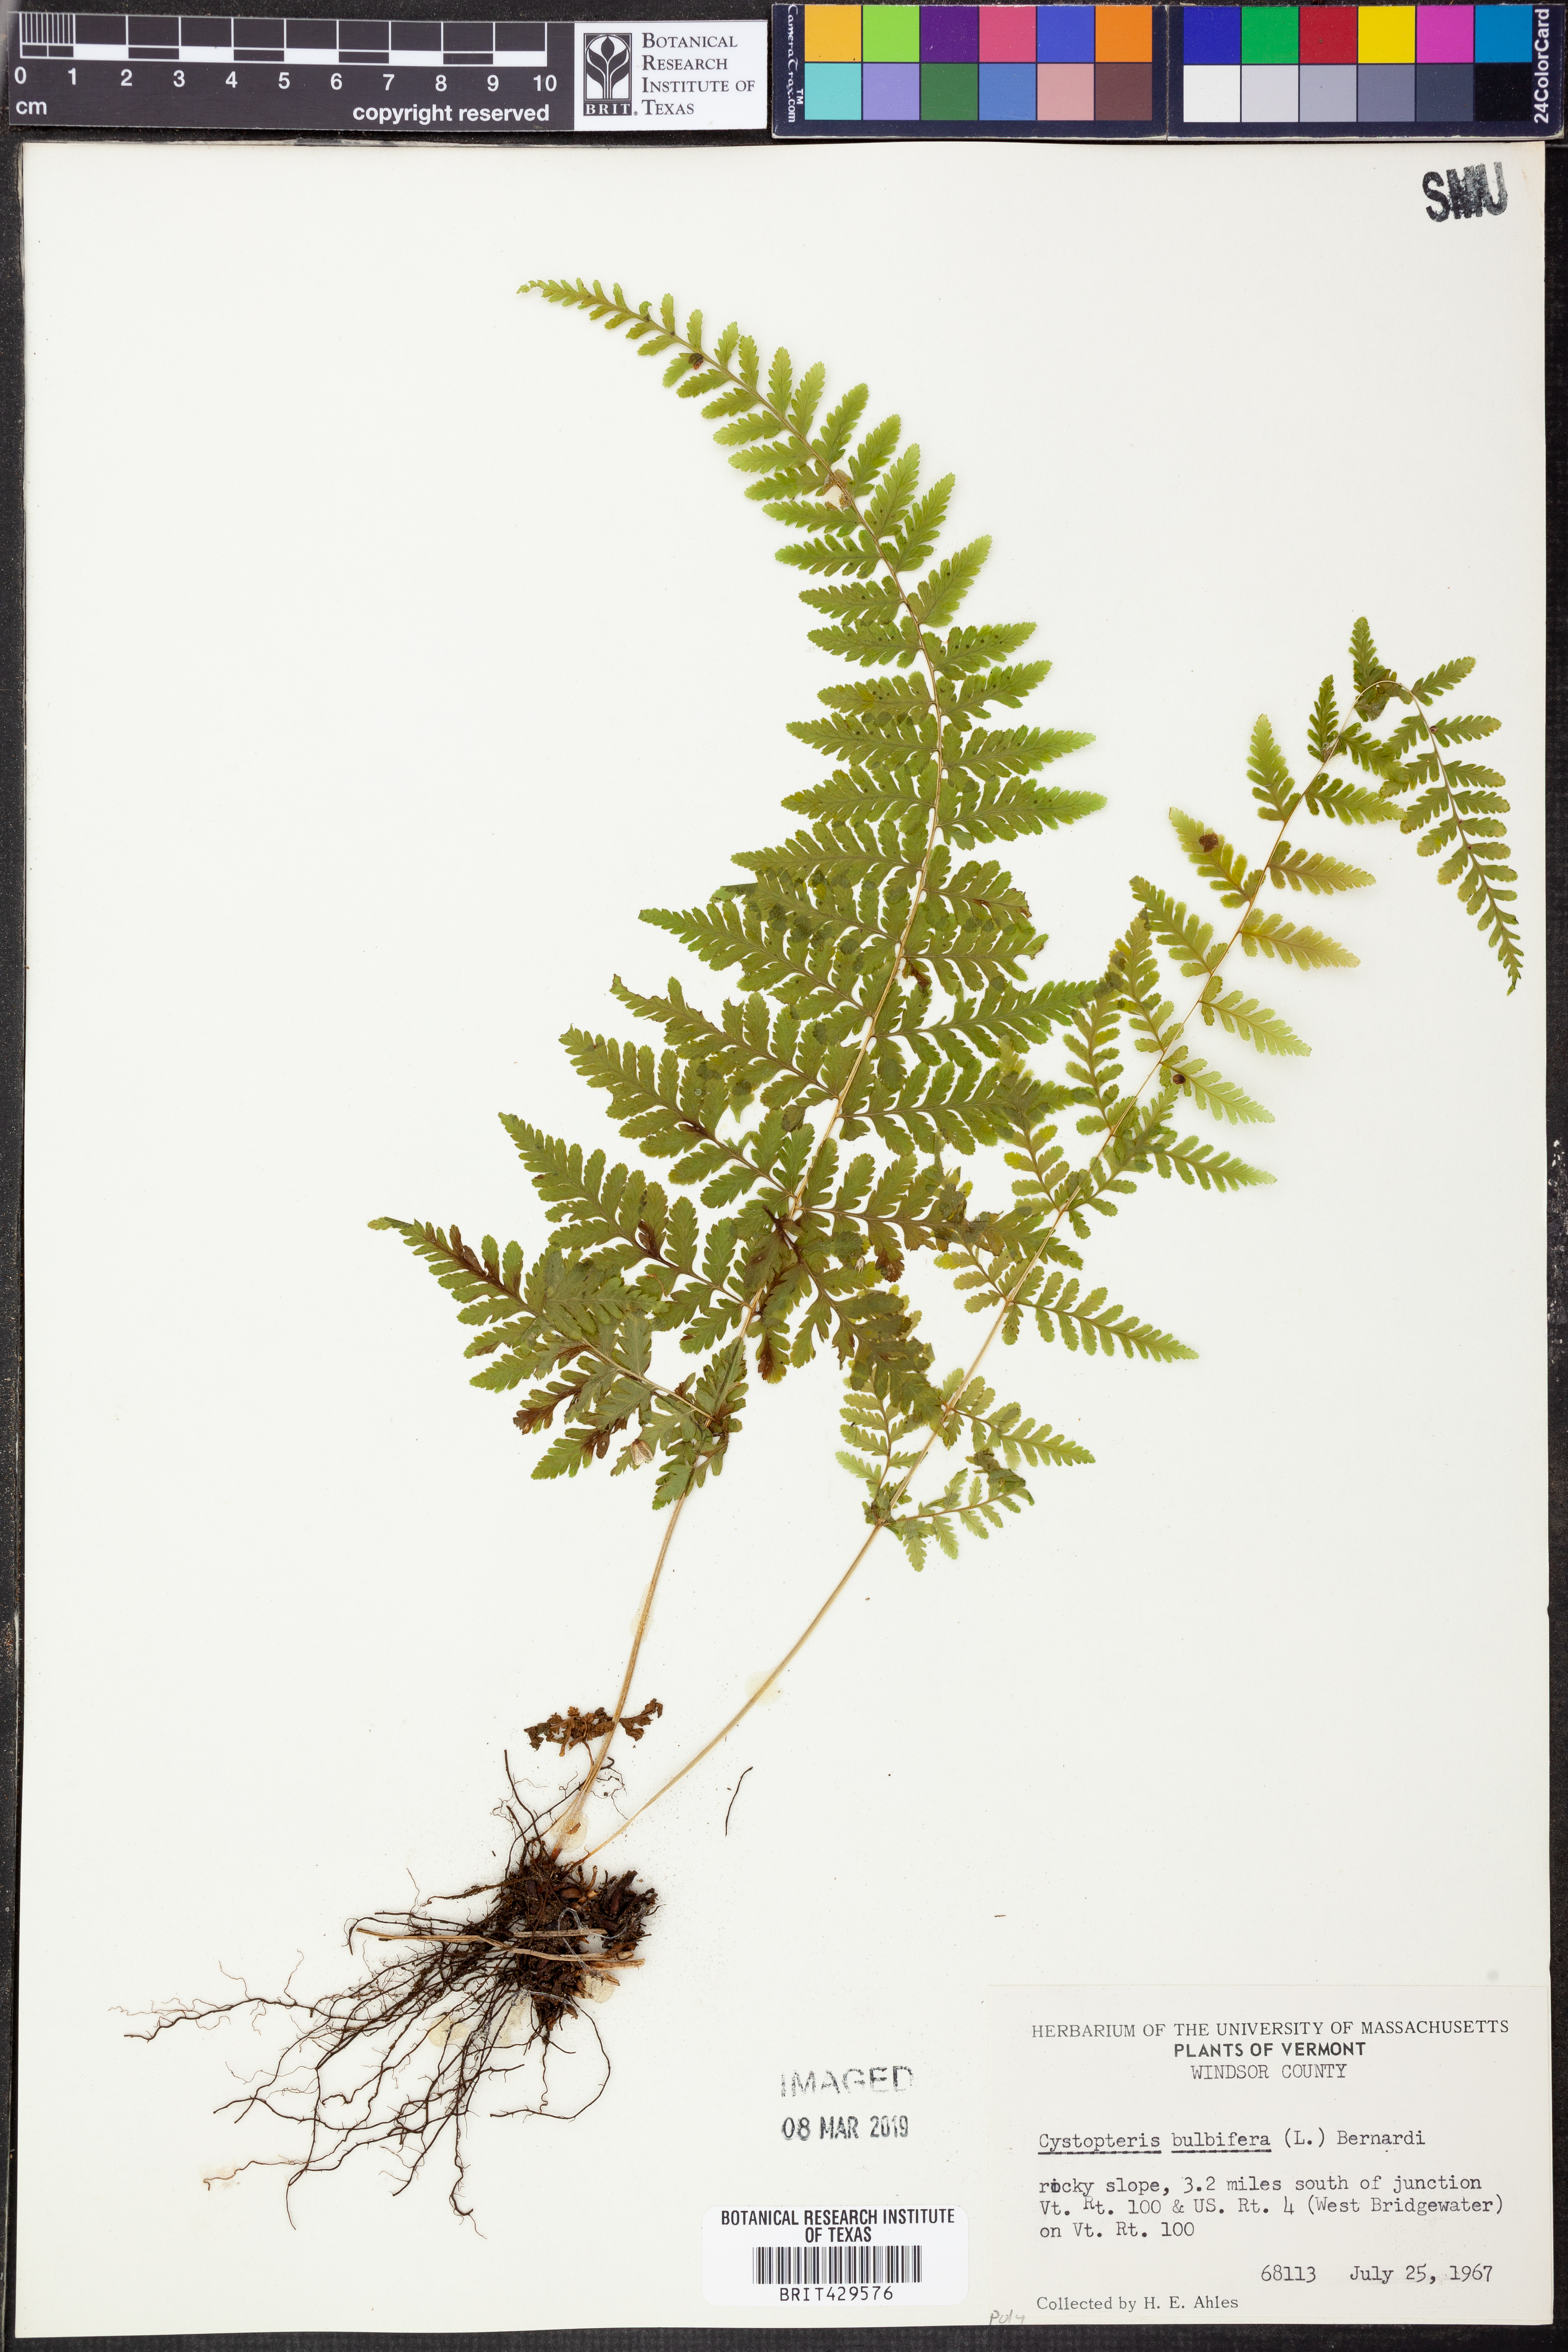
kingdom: Plantae
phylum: Tracheophyta
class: Polypodiopsida
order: Polypodiales
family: Cystopteridaceae
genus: Cystopteris
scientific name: Cystopteris bulbifera
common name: Bulblet bladder fern
